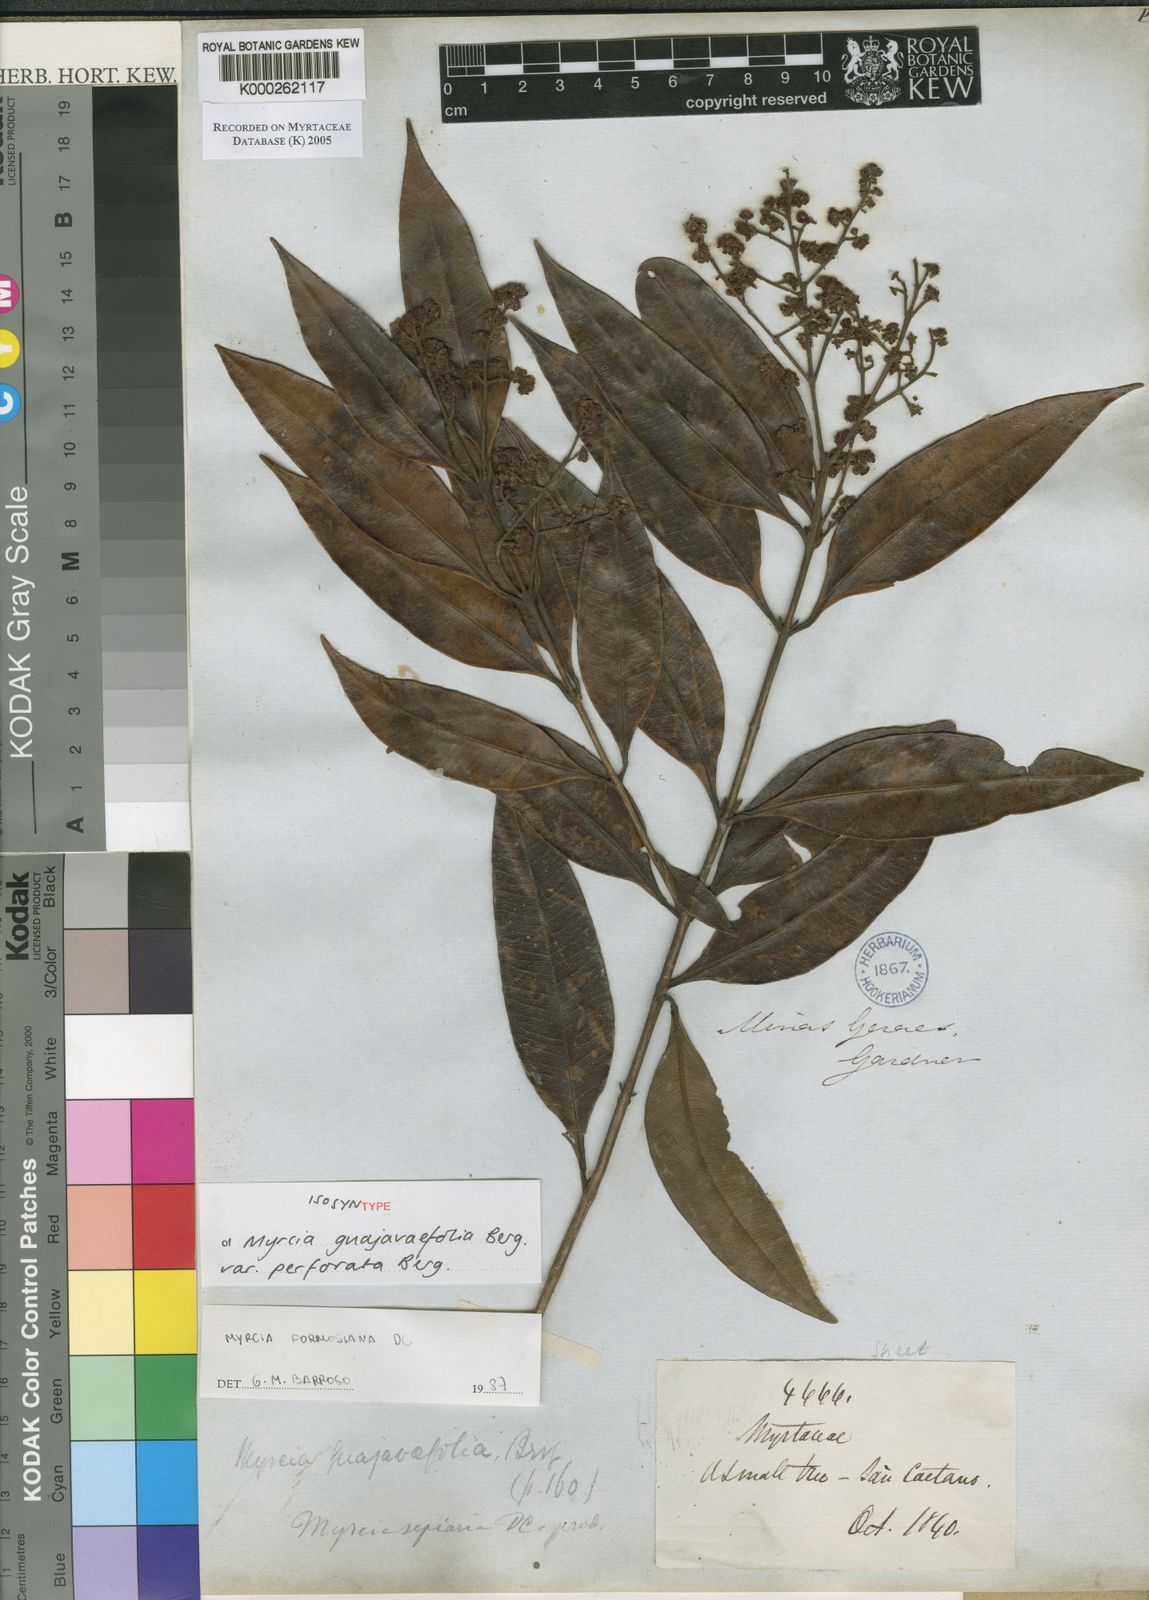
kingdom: Plantae
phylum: Tracheophyta
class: Magnoliopsida
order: Myrtales
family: Myrtaceae
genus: Myrcia
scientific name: Myrcia splendens
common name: Surinam cherry
